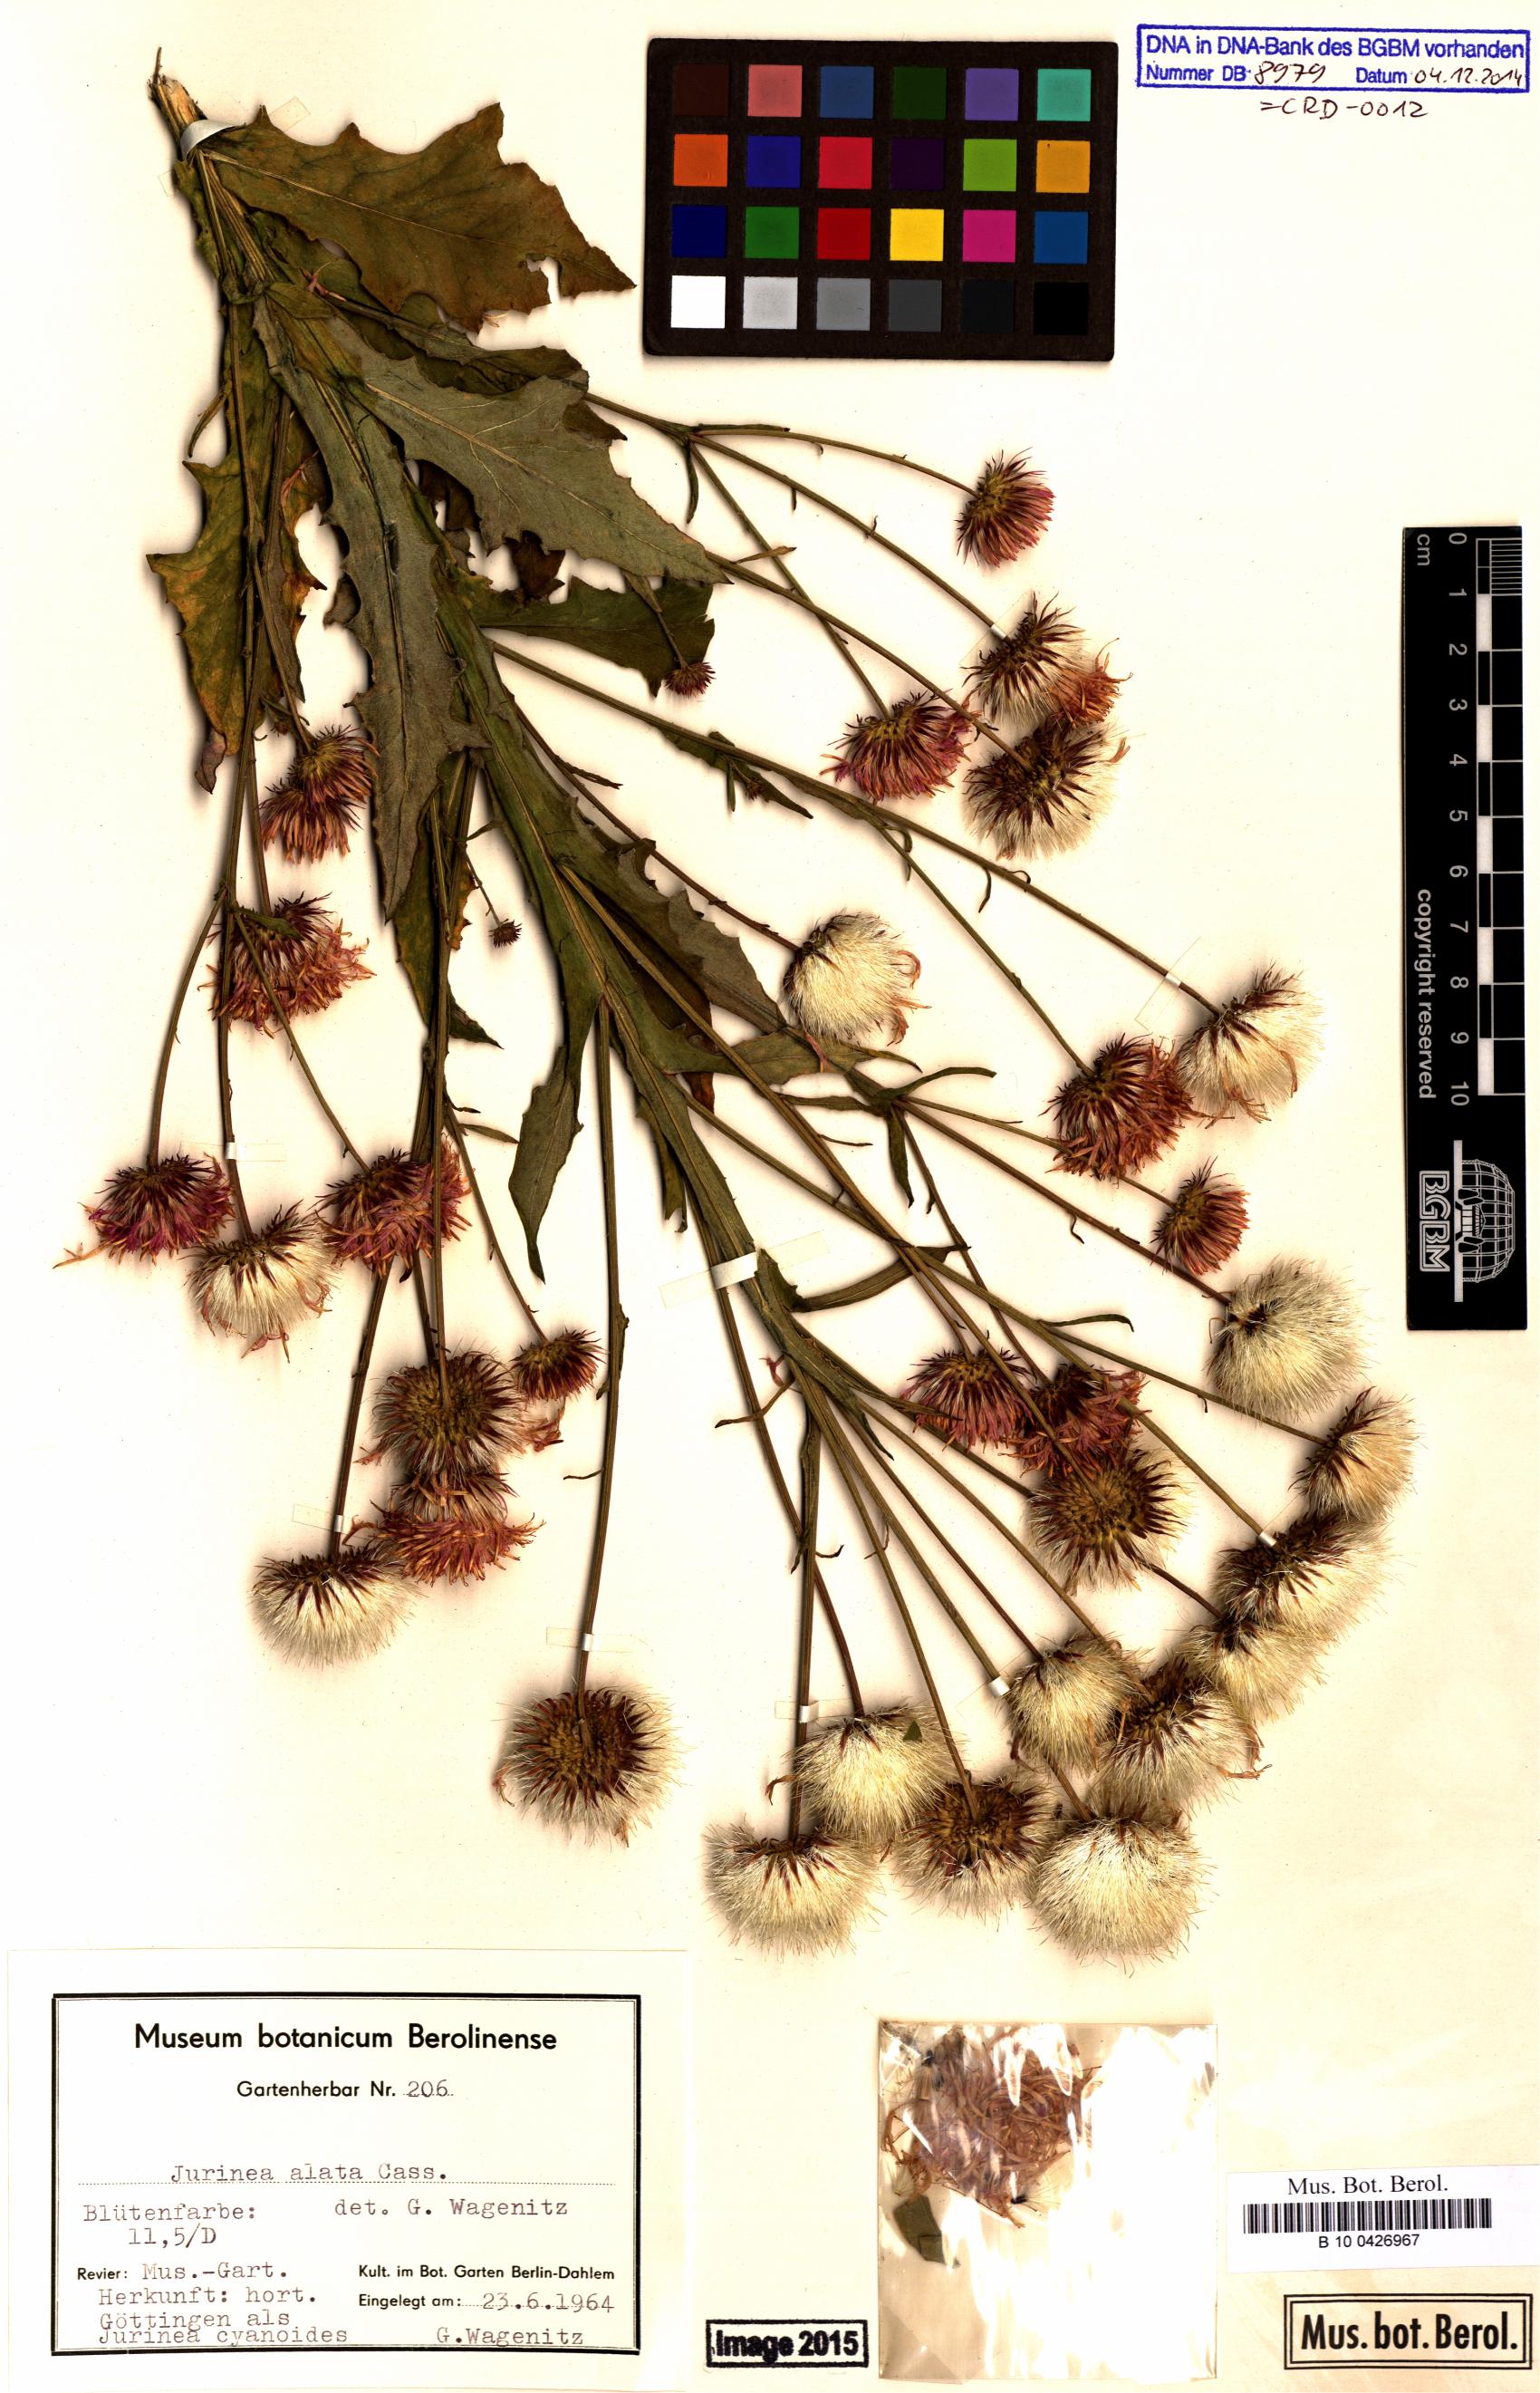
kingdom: Plantae
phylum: Tracheophyta
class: Magnoliopsida
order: Asterales
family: Asteraceae
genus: Jurinea
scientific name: Jurinea alata
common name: Winged jurinea
